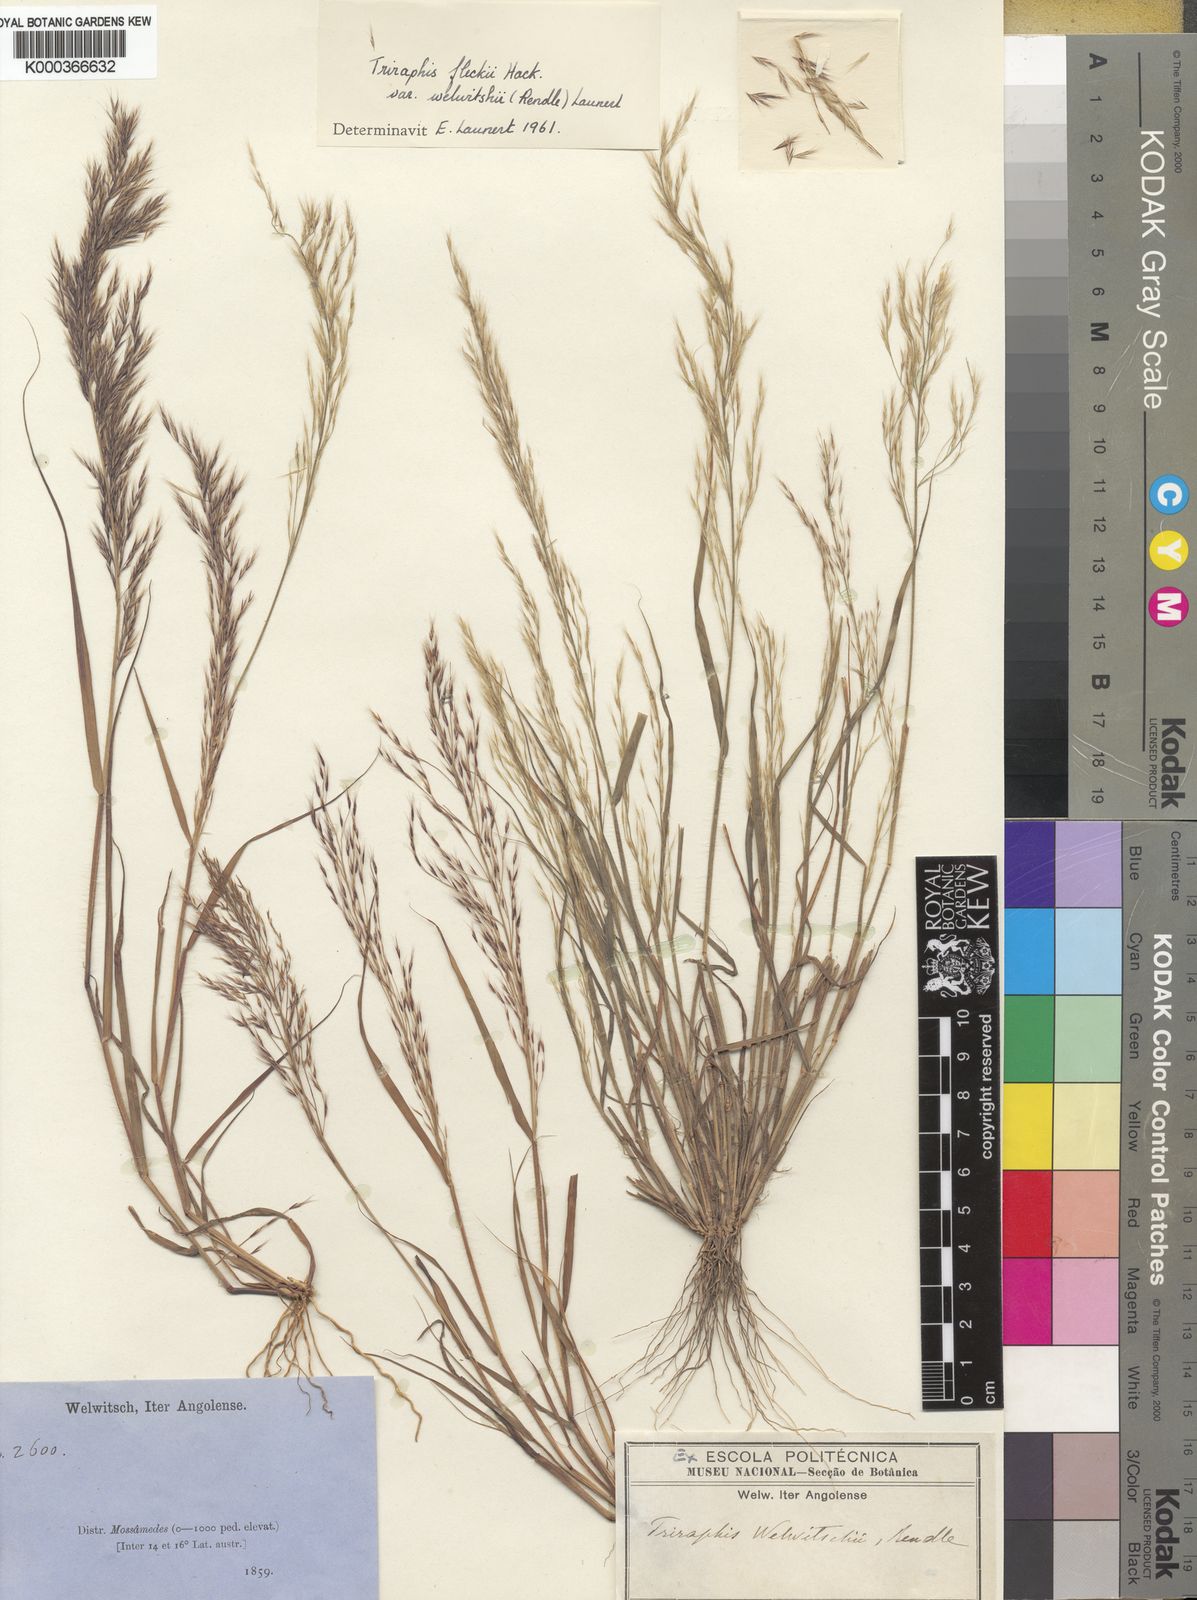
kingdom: Plantae
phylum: Tracheophyta
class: Liliopsida
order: Poales
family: Poaceae
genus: Triraphis
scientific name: Triraphis
